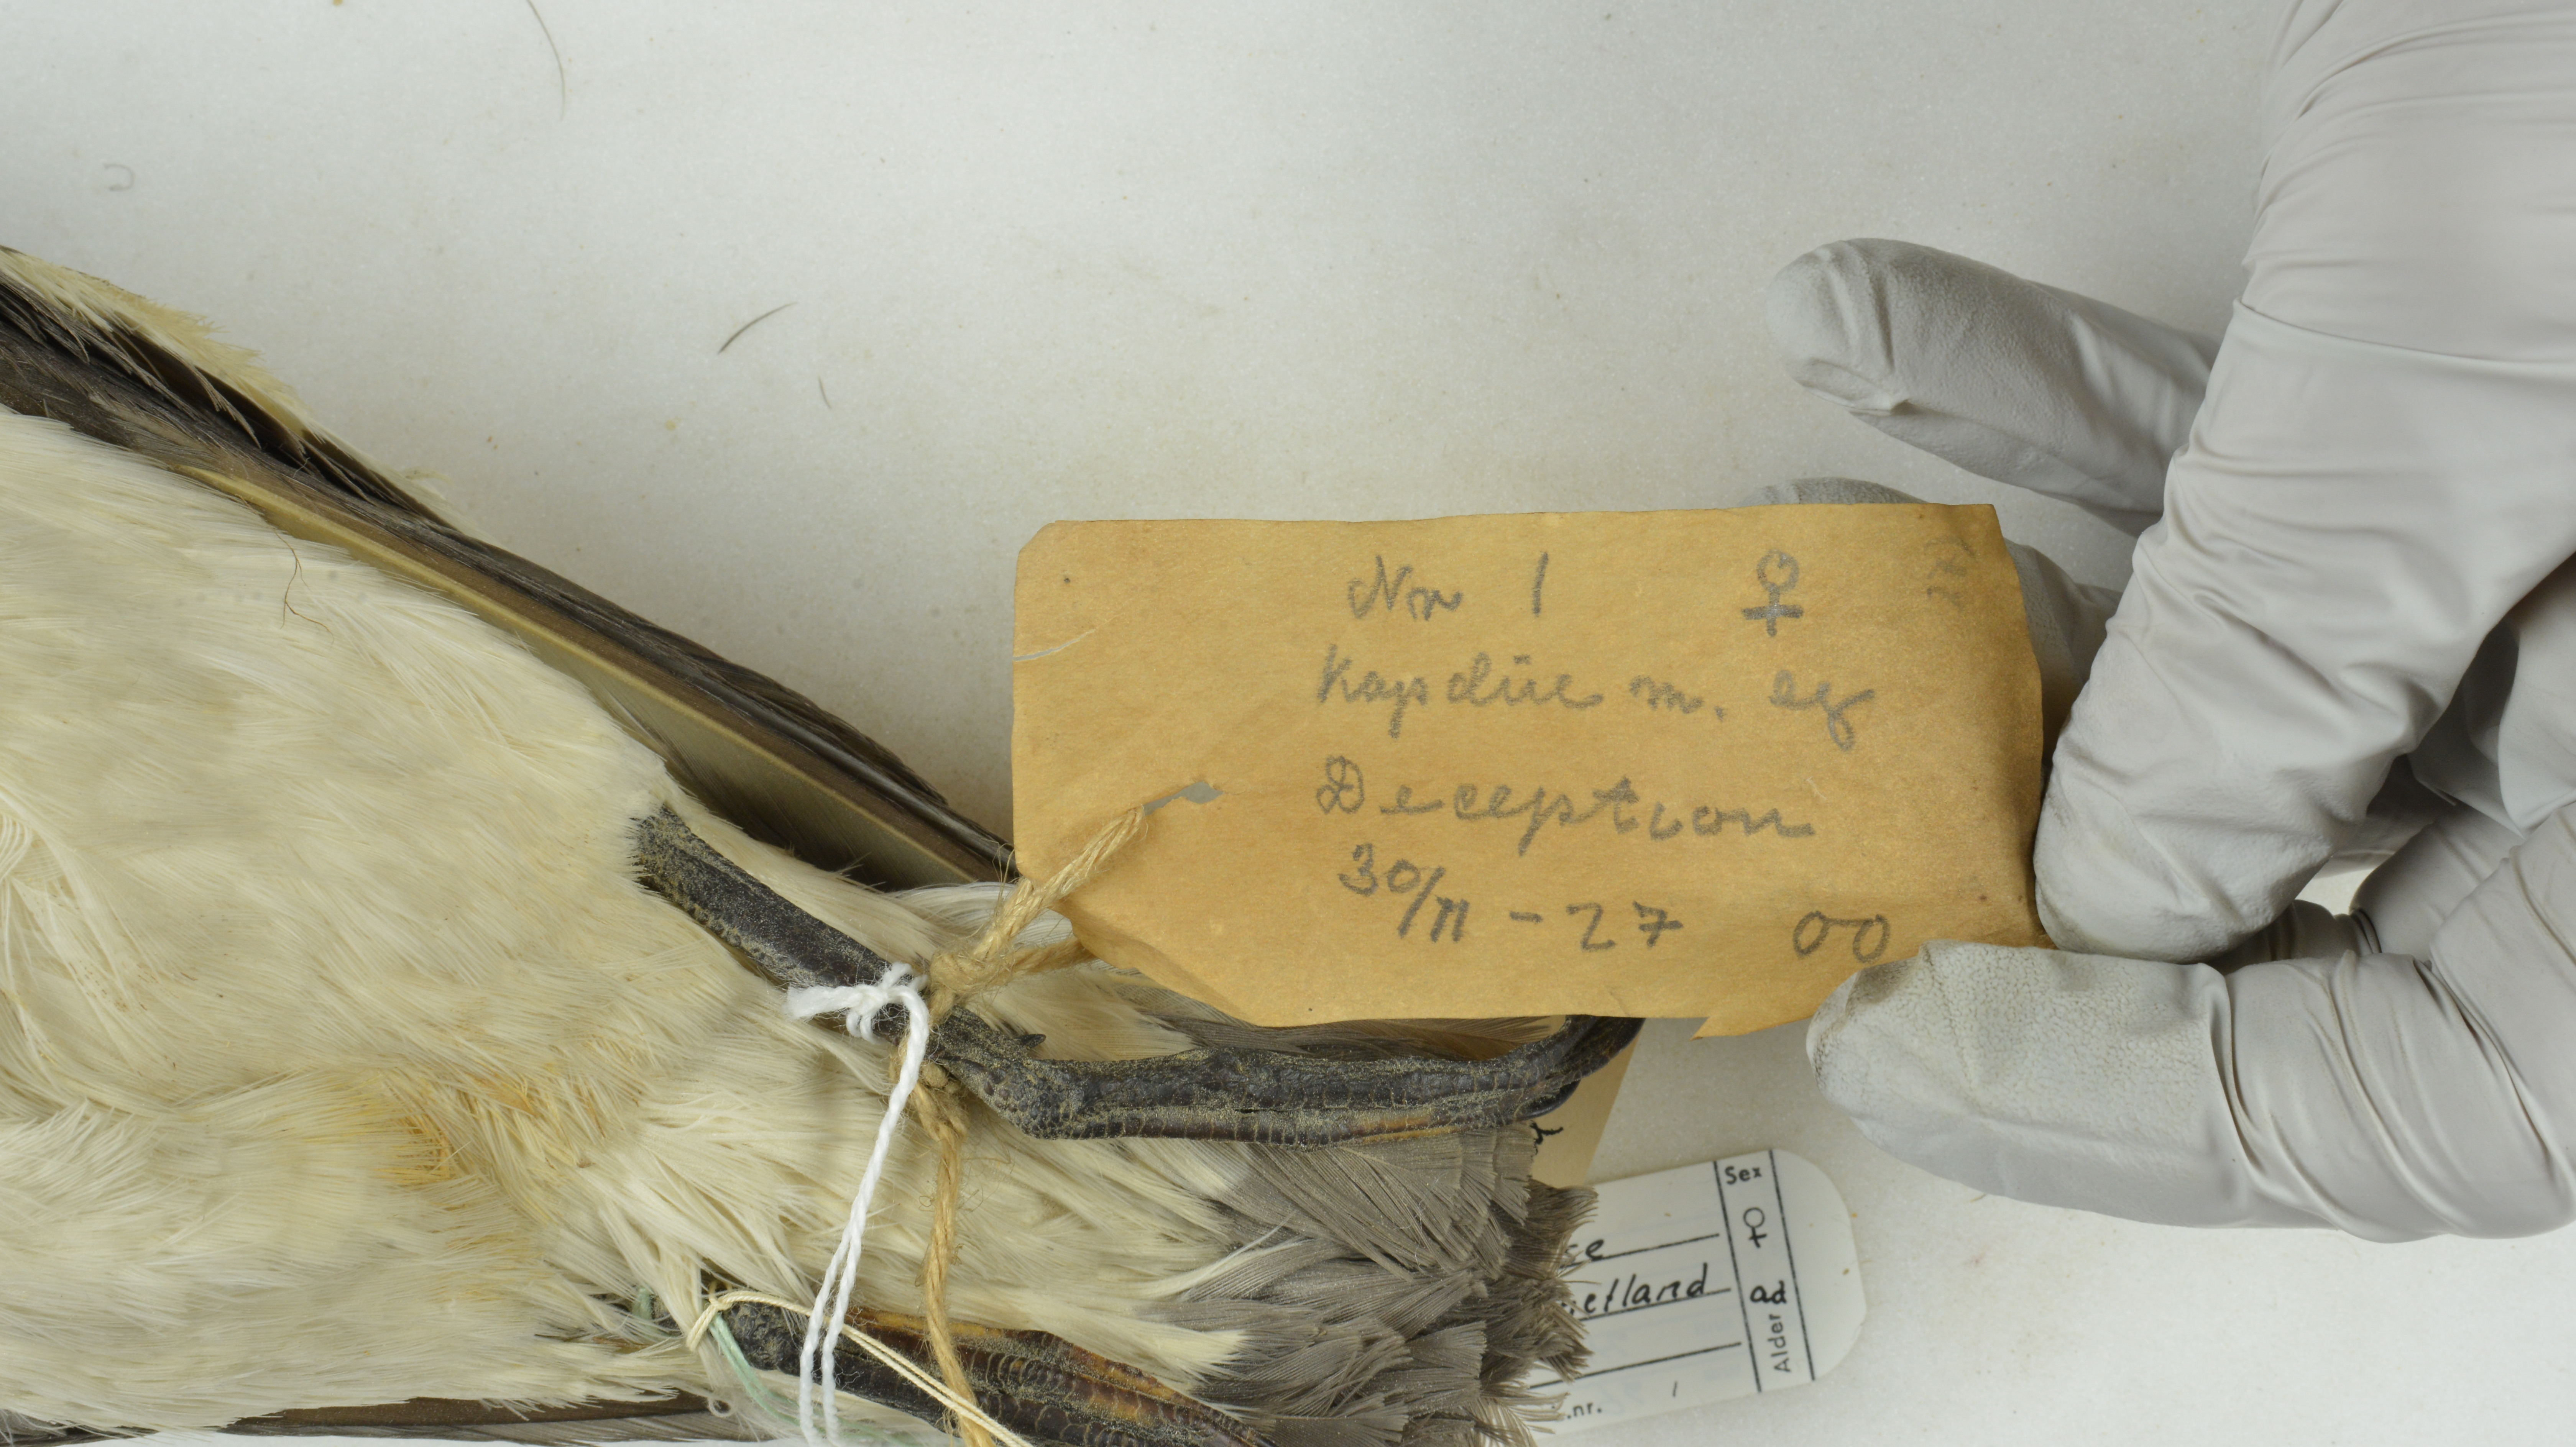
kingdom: Animalia
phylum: Chordata
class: Aves
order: Procellariiformes
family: Procellariidae
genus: Daption
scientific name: Daption capense
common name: Cape petrel
